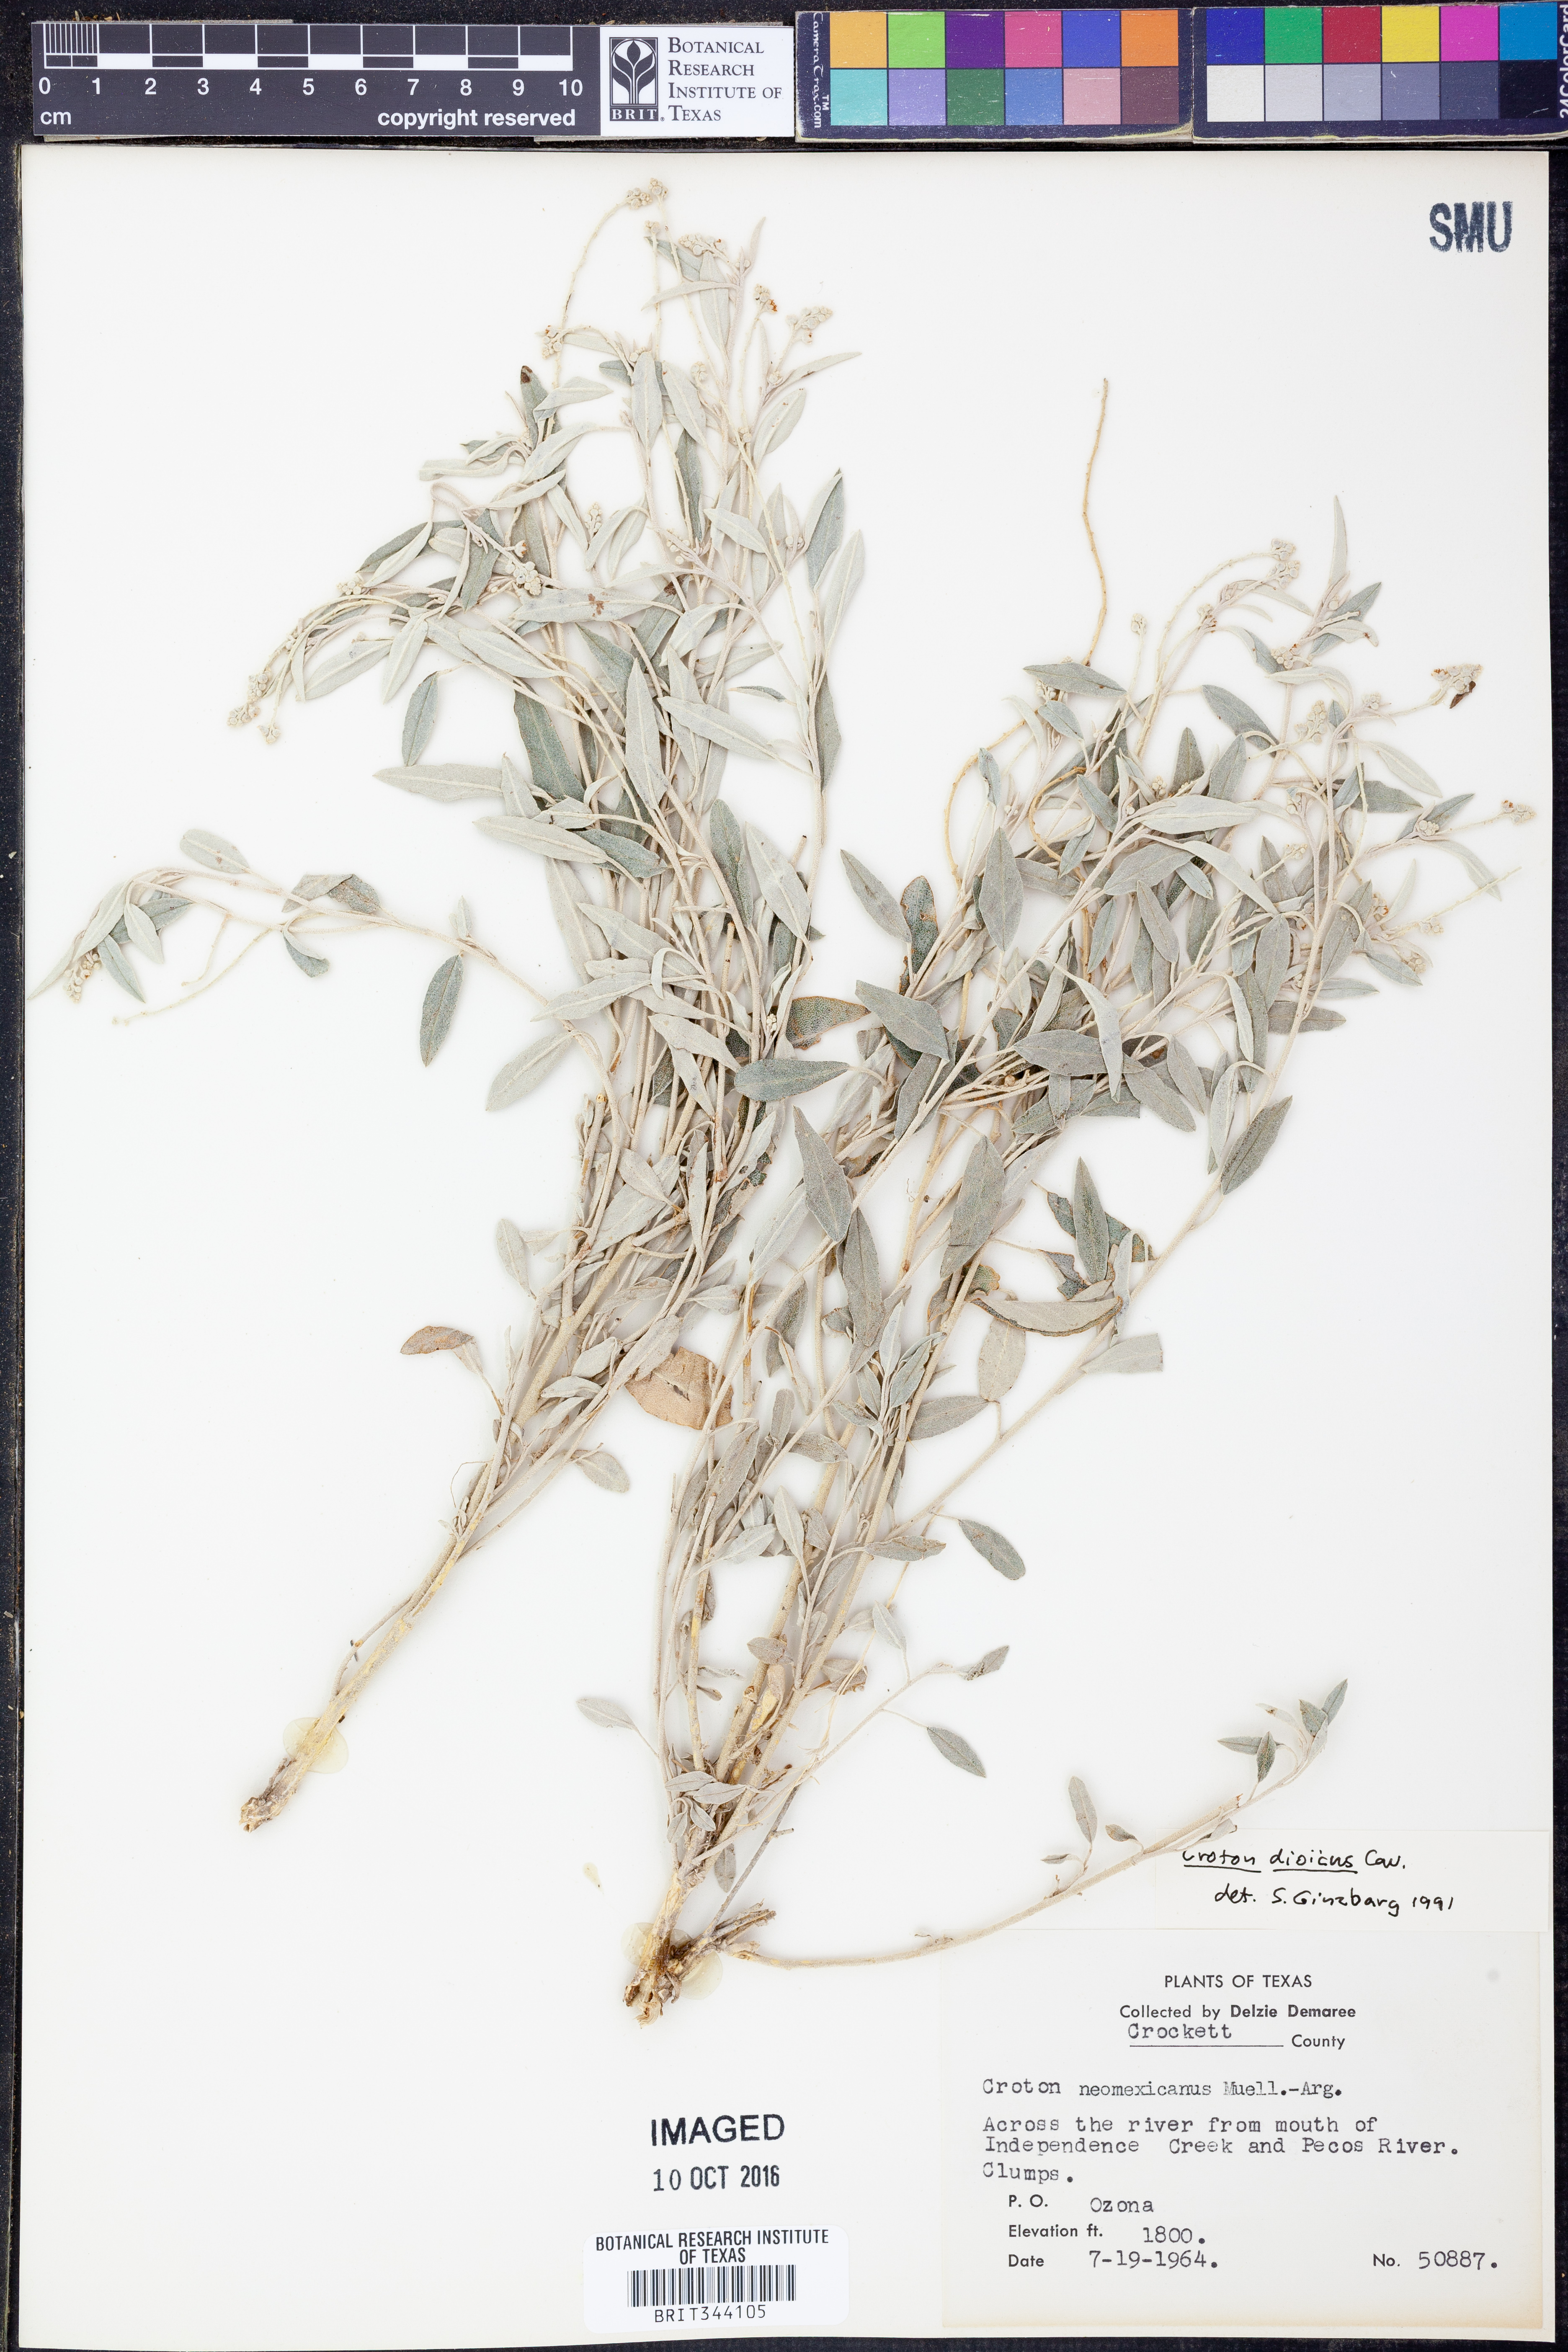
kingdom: Plantae
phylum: Tracheophyta
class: Magnoliopsida
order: Malpighiales
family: Euphorbiaceae
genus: Croton
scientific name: Croton dioicus
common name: Grassland croton
